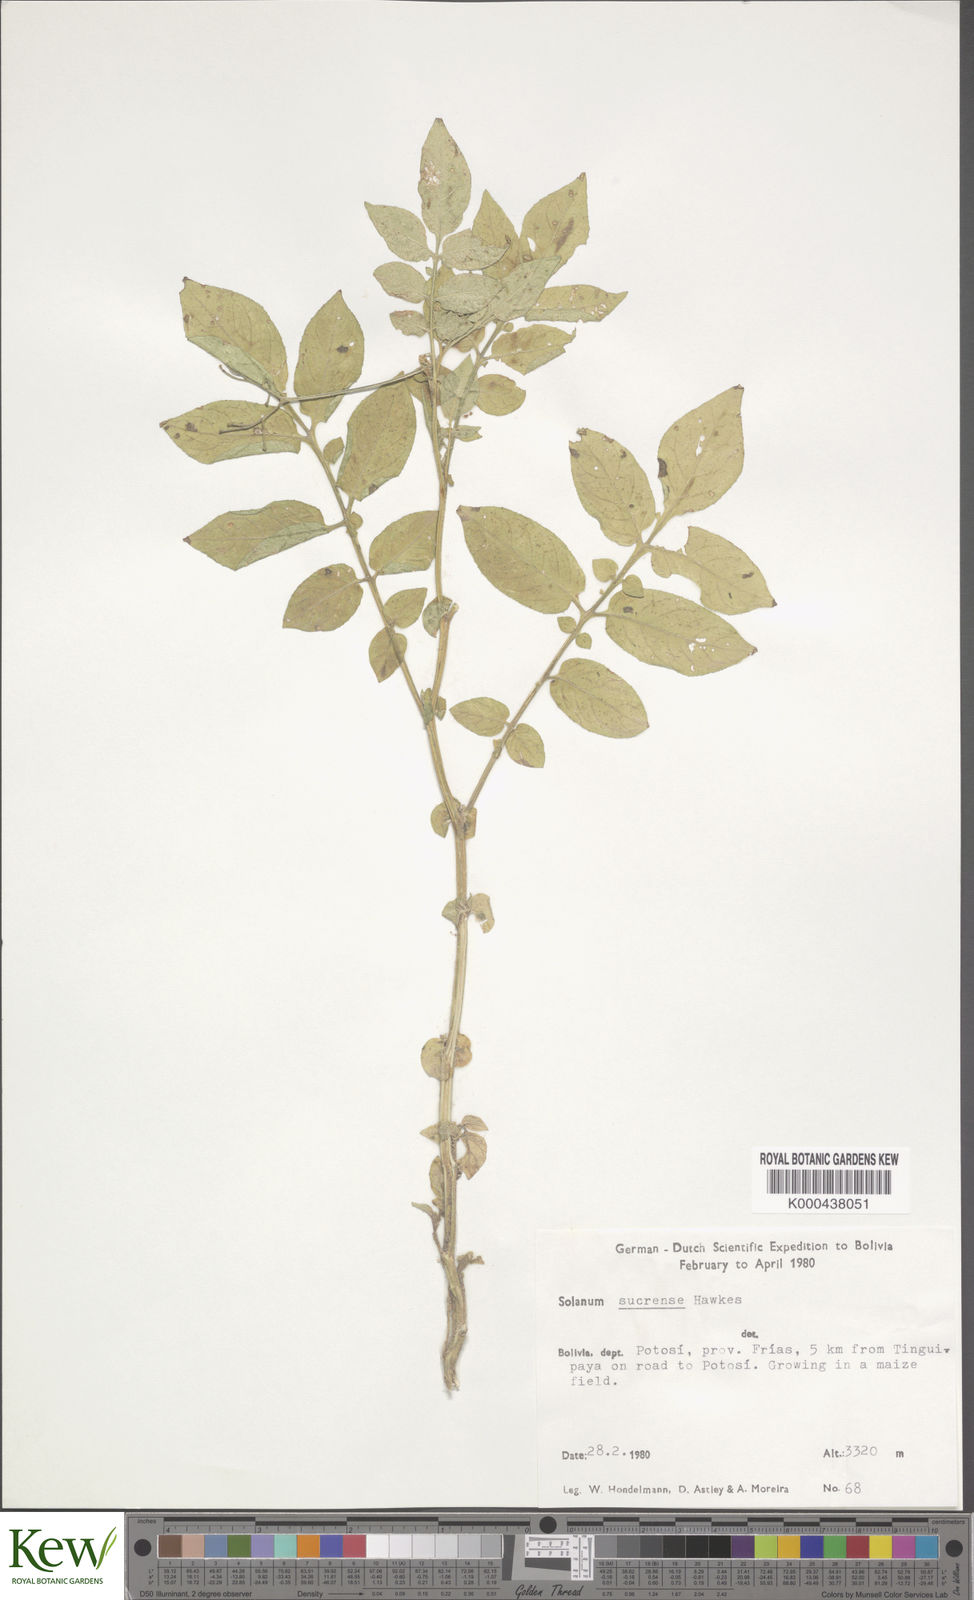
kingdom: Plantae
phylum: Tracheophyta
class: Magnoliopsida
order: Solanales
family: Solanaceae
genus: Solanum
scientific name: Solanum brevicaule
